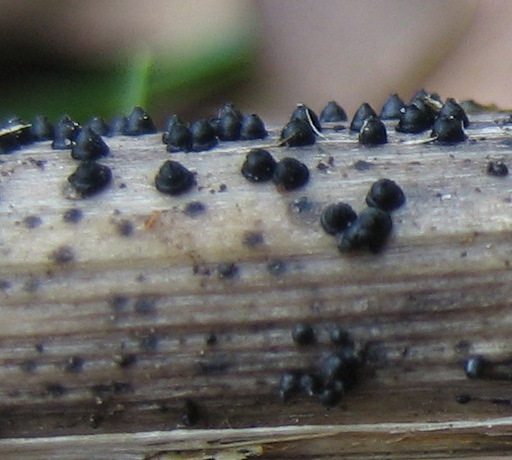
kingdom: Fungi
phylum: Ascomycota
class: Dothideomycetes
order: Pleosporales
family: Leptosphaeriaceae
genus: Leptosphaeria
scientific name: Leptosphaeria
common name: kulkegle
